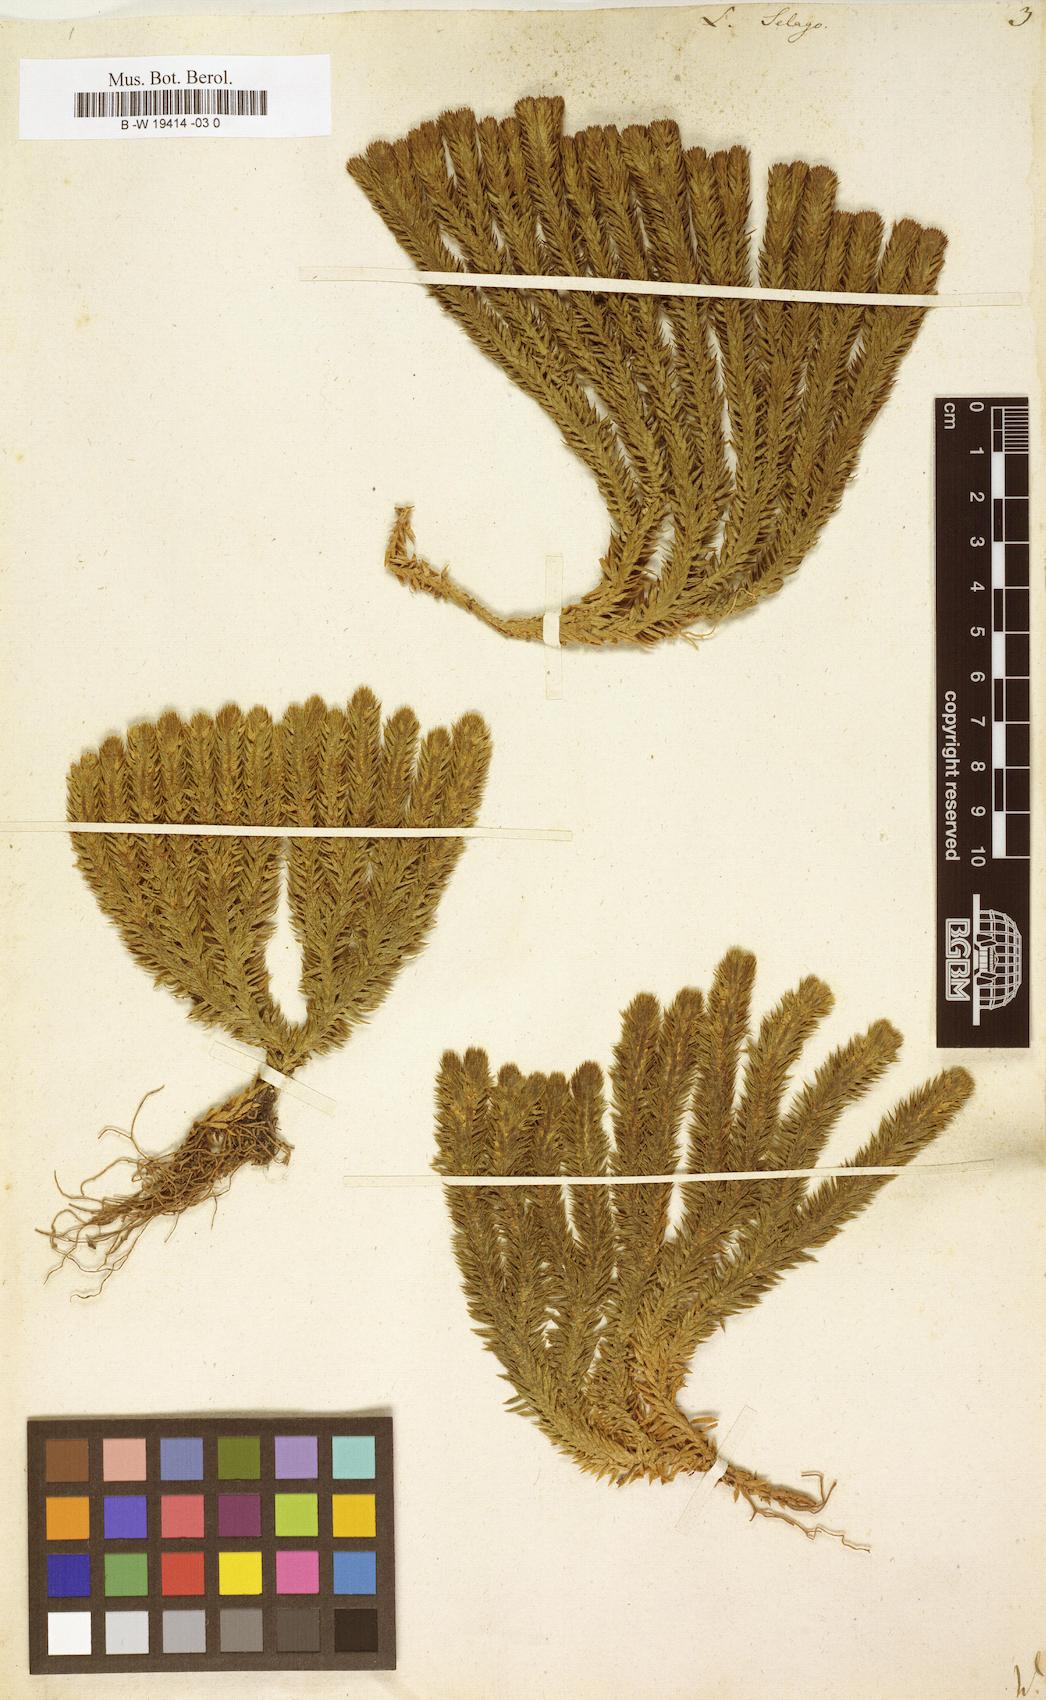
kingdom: Plantae
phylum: Tracheophyta
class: Lycopodiopsida
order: Lycopodiales
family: Lycopodiaceae
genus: Huperzia
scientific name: Huperzia selago
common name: Northern firmoss
